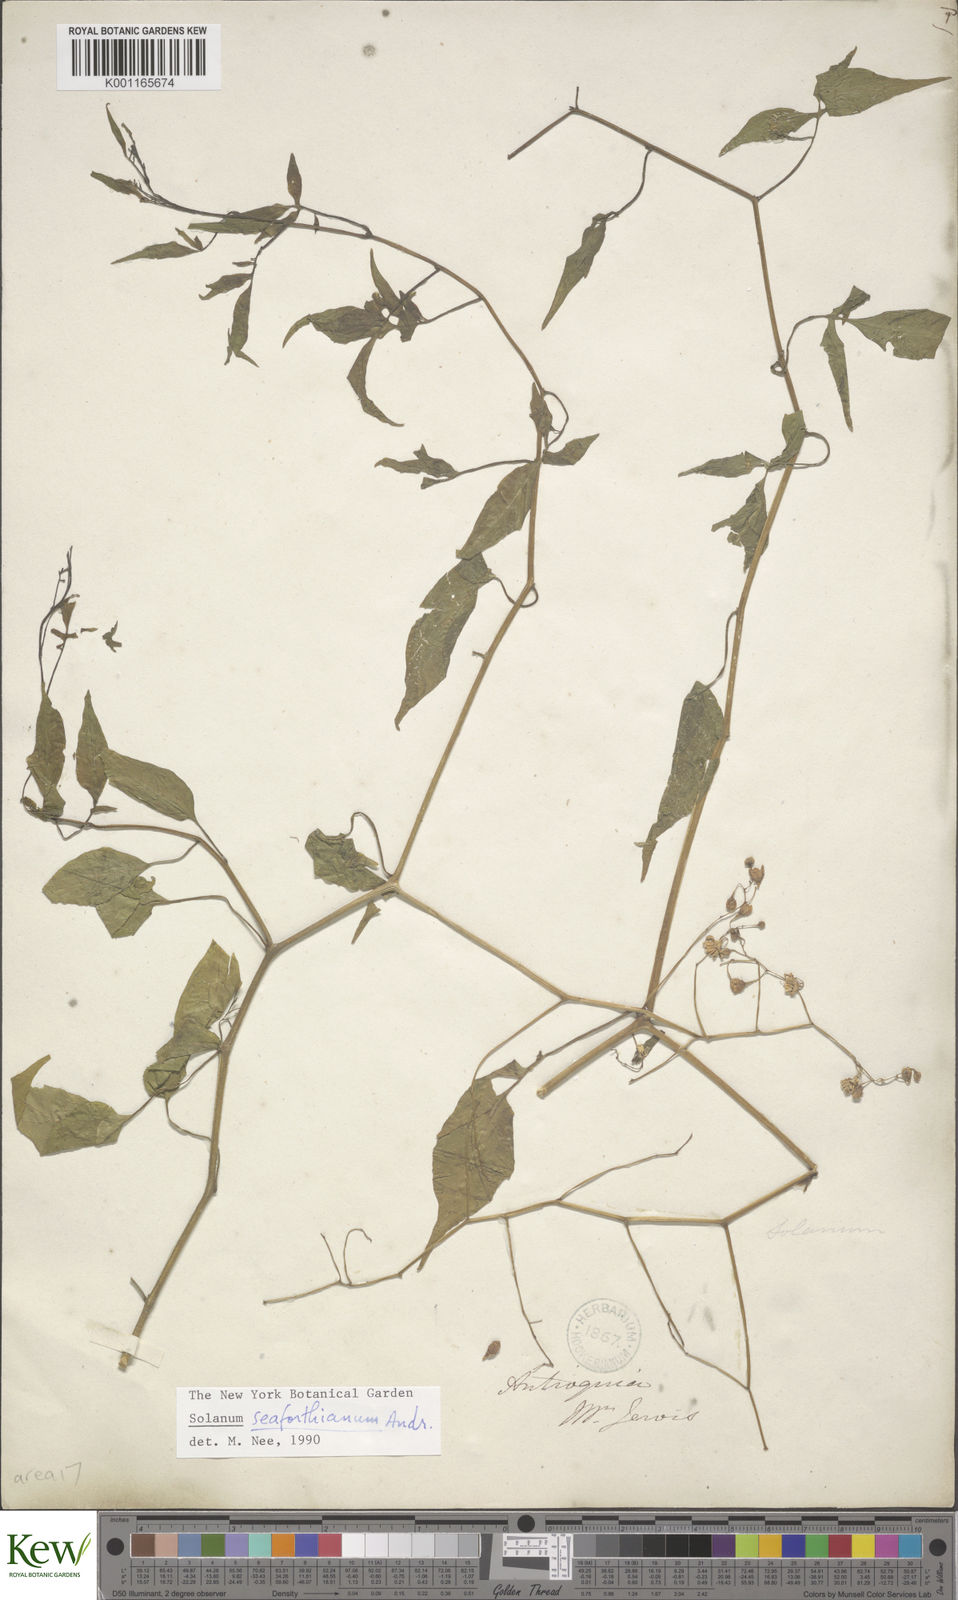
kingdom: Plantae
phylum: Tracheophyta
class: Magnoliopsida
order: Solanales
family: Solanaceae
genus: Solanum
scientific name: Solanum seaforthianum
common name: Brazilian nightshade
